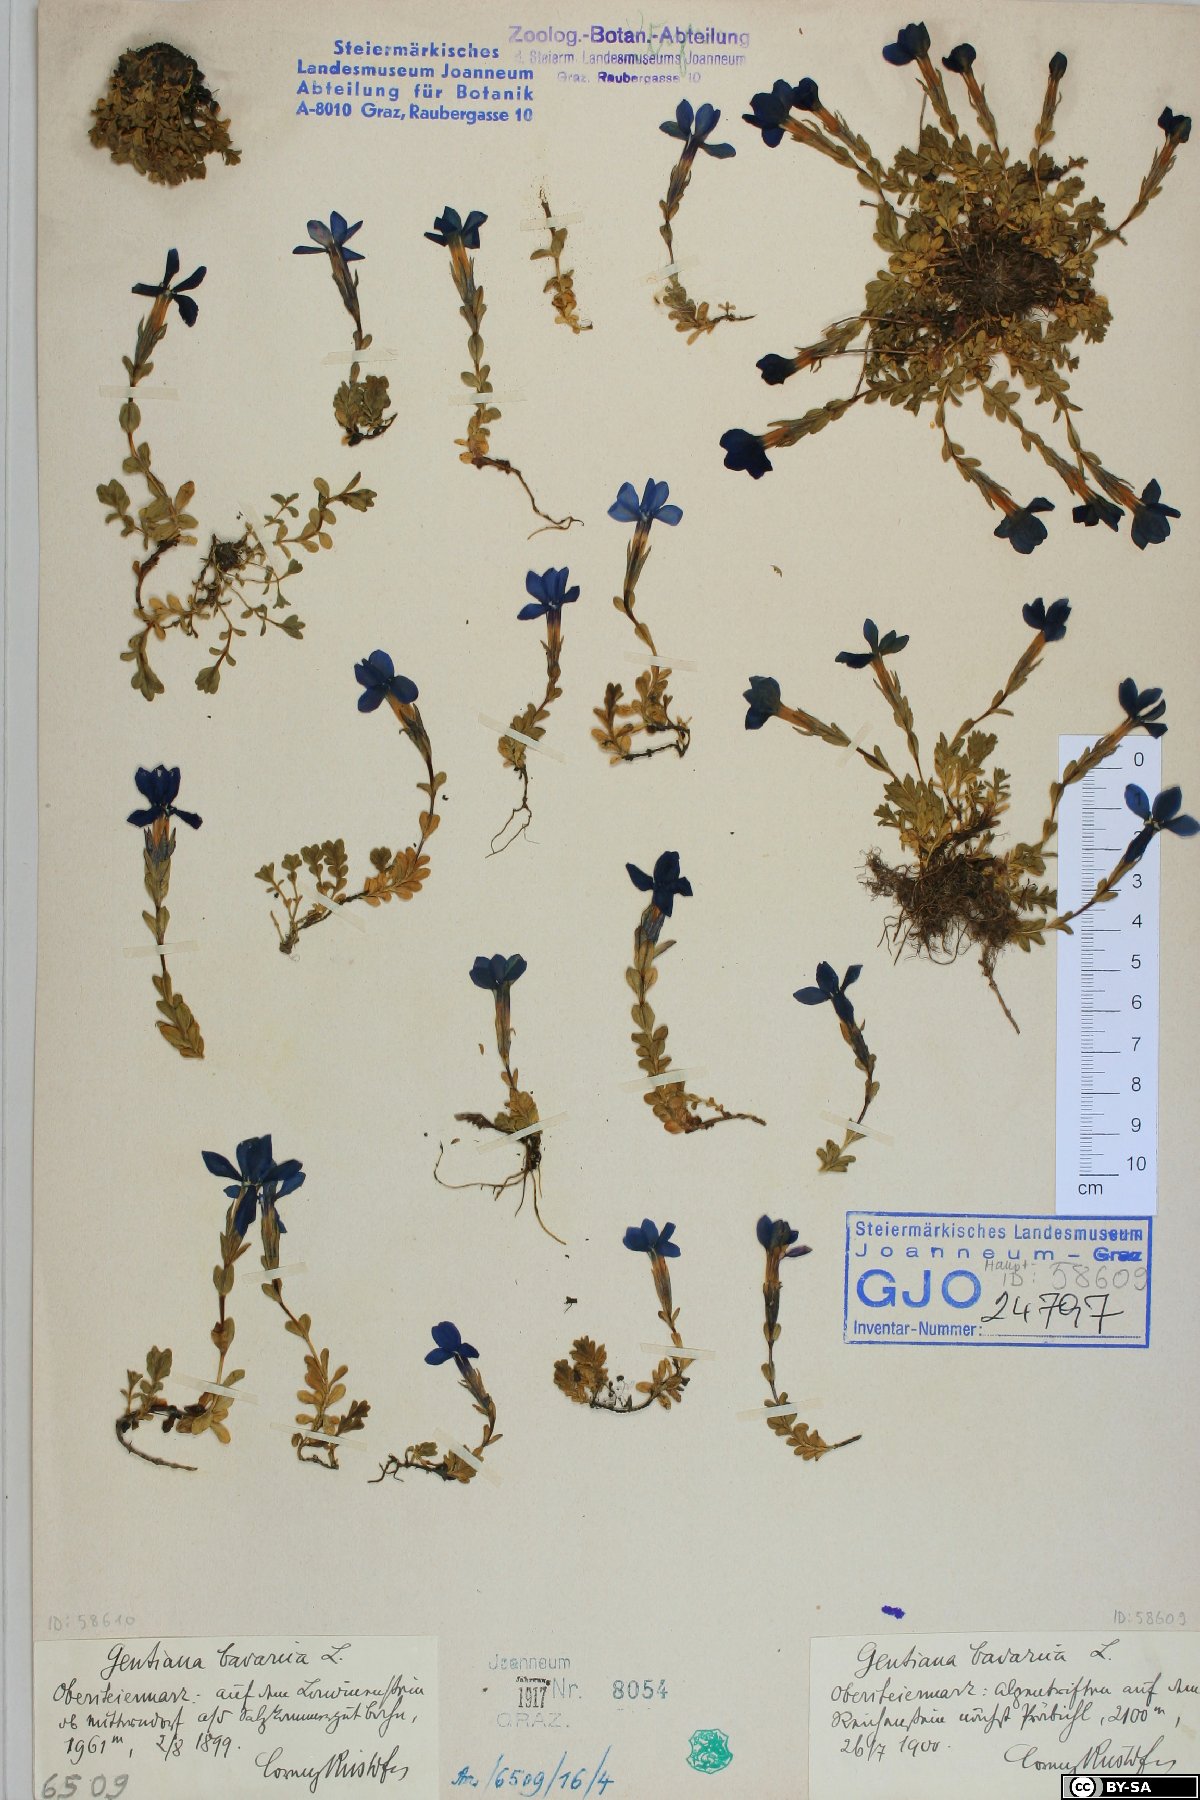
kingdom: Plantae
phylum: Tracheophyta
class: Magnoliopsida
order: Gentianales
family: Gentianaceae
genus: Gentiana
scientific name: Gentiana bavarica
